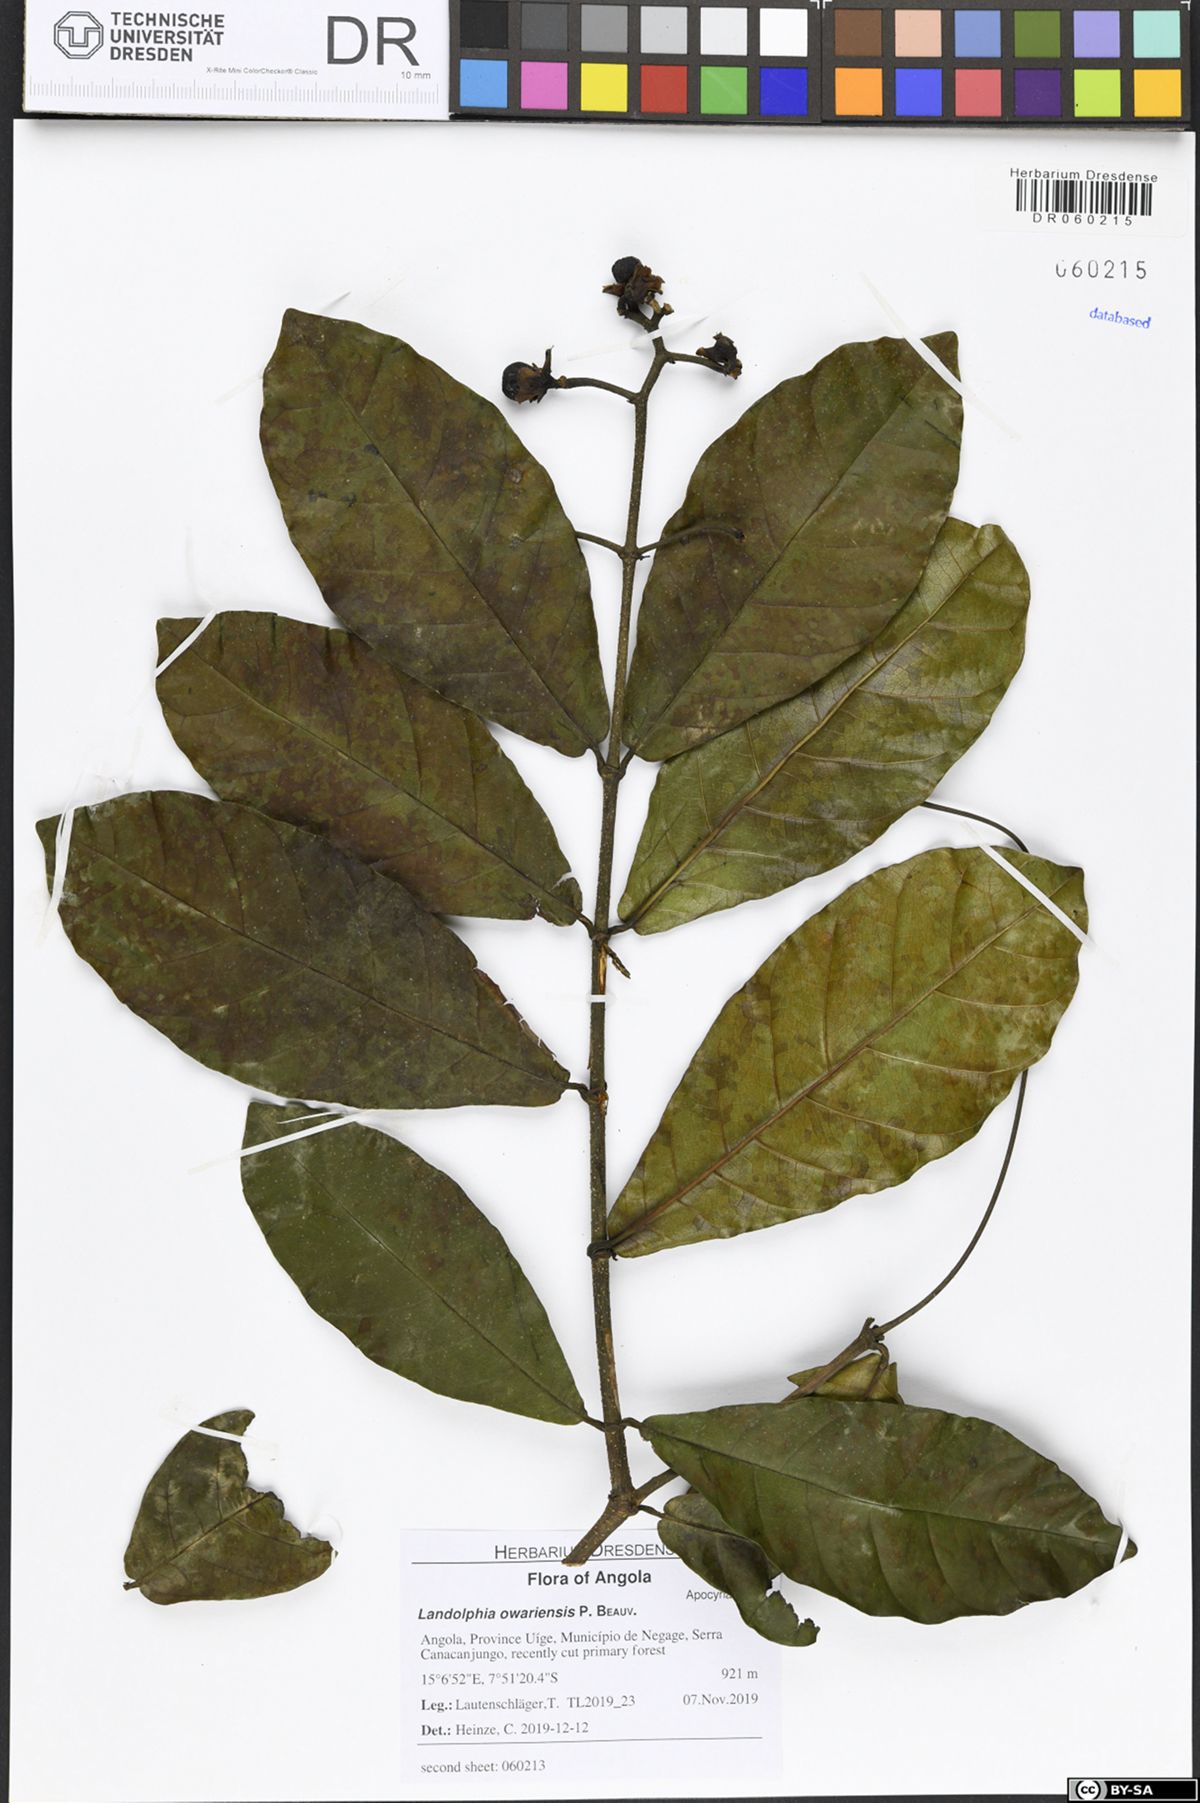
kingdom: Plantae
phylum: Tracheophyta
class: Magnoliopsida
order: Gentianales
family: Apocynaceae
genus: Dictyophleba
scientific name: Dictyophleba lucida
